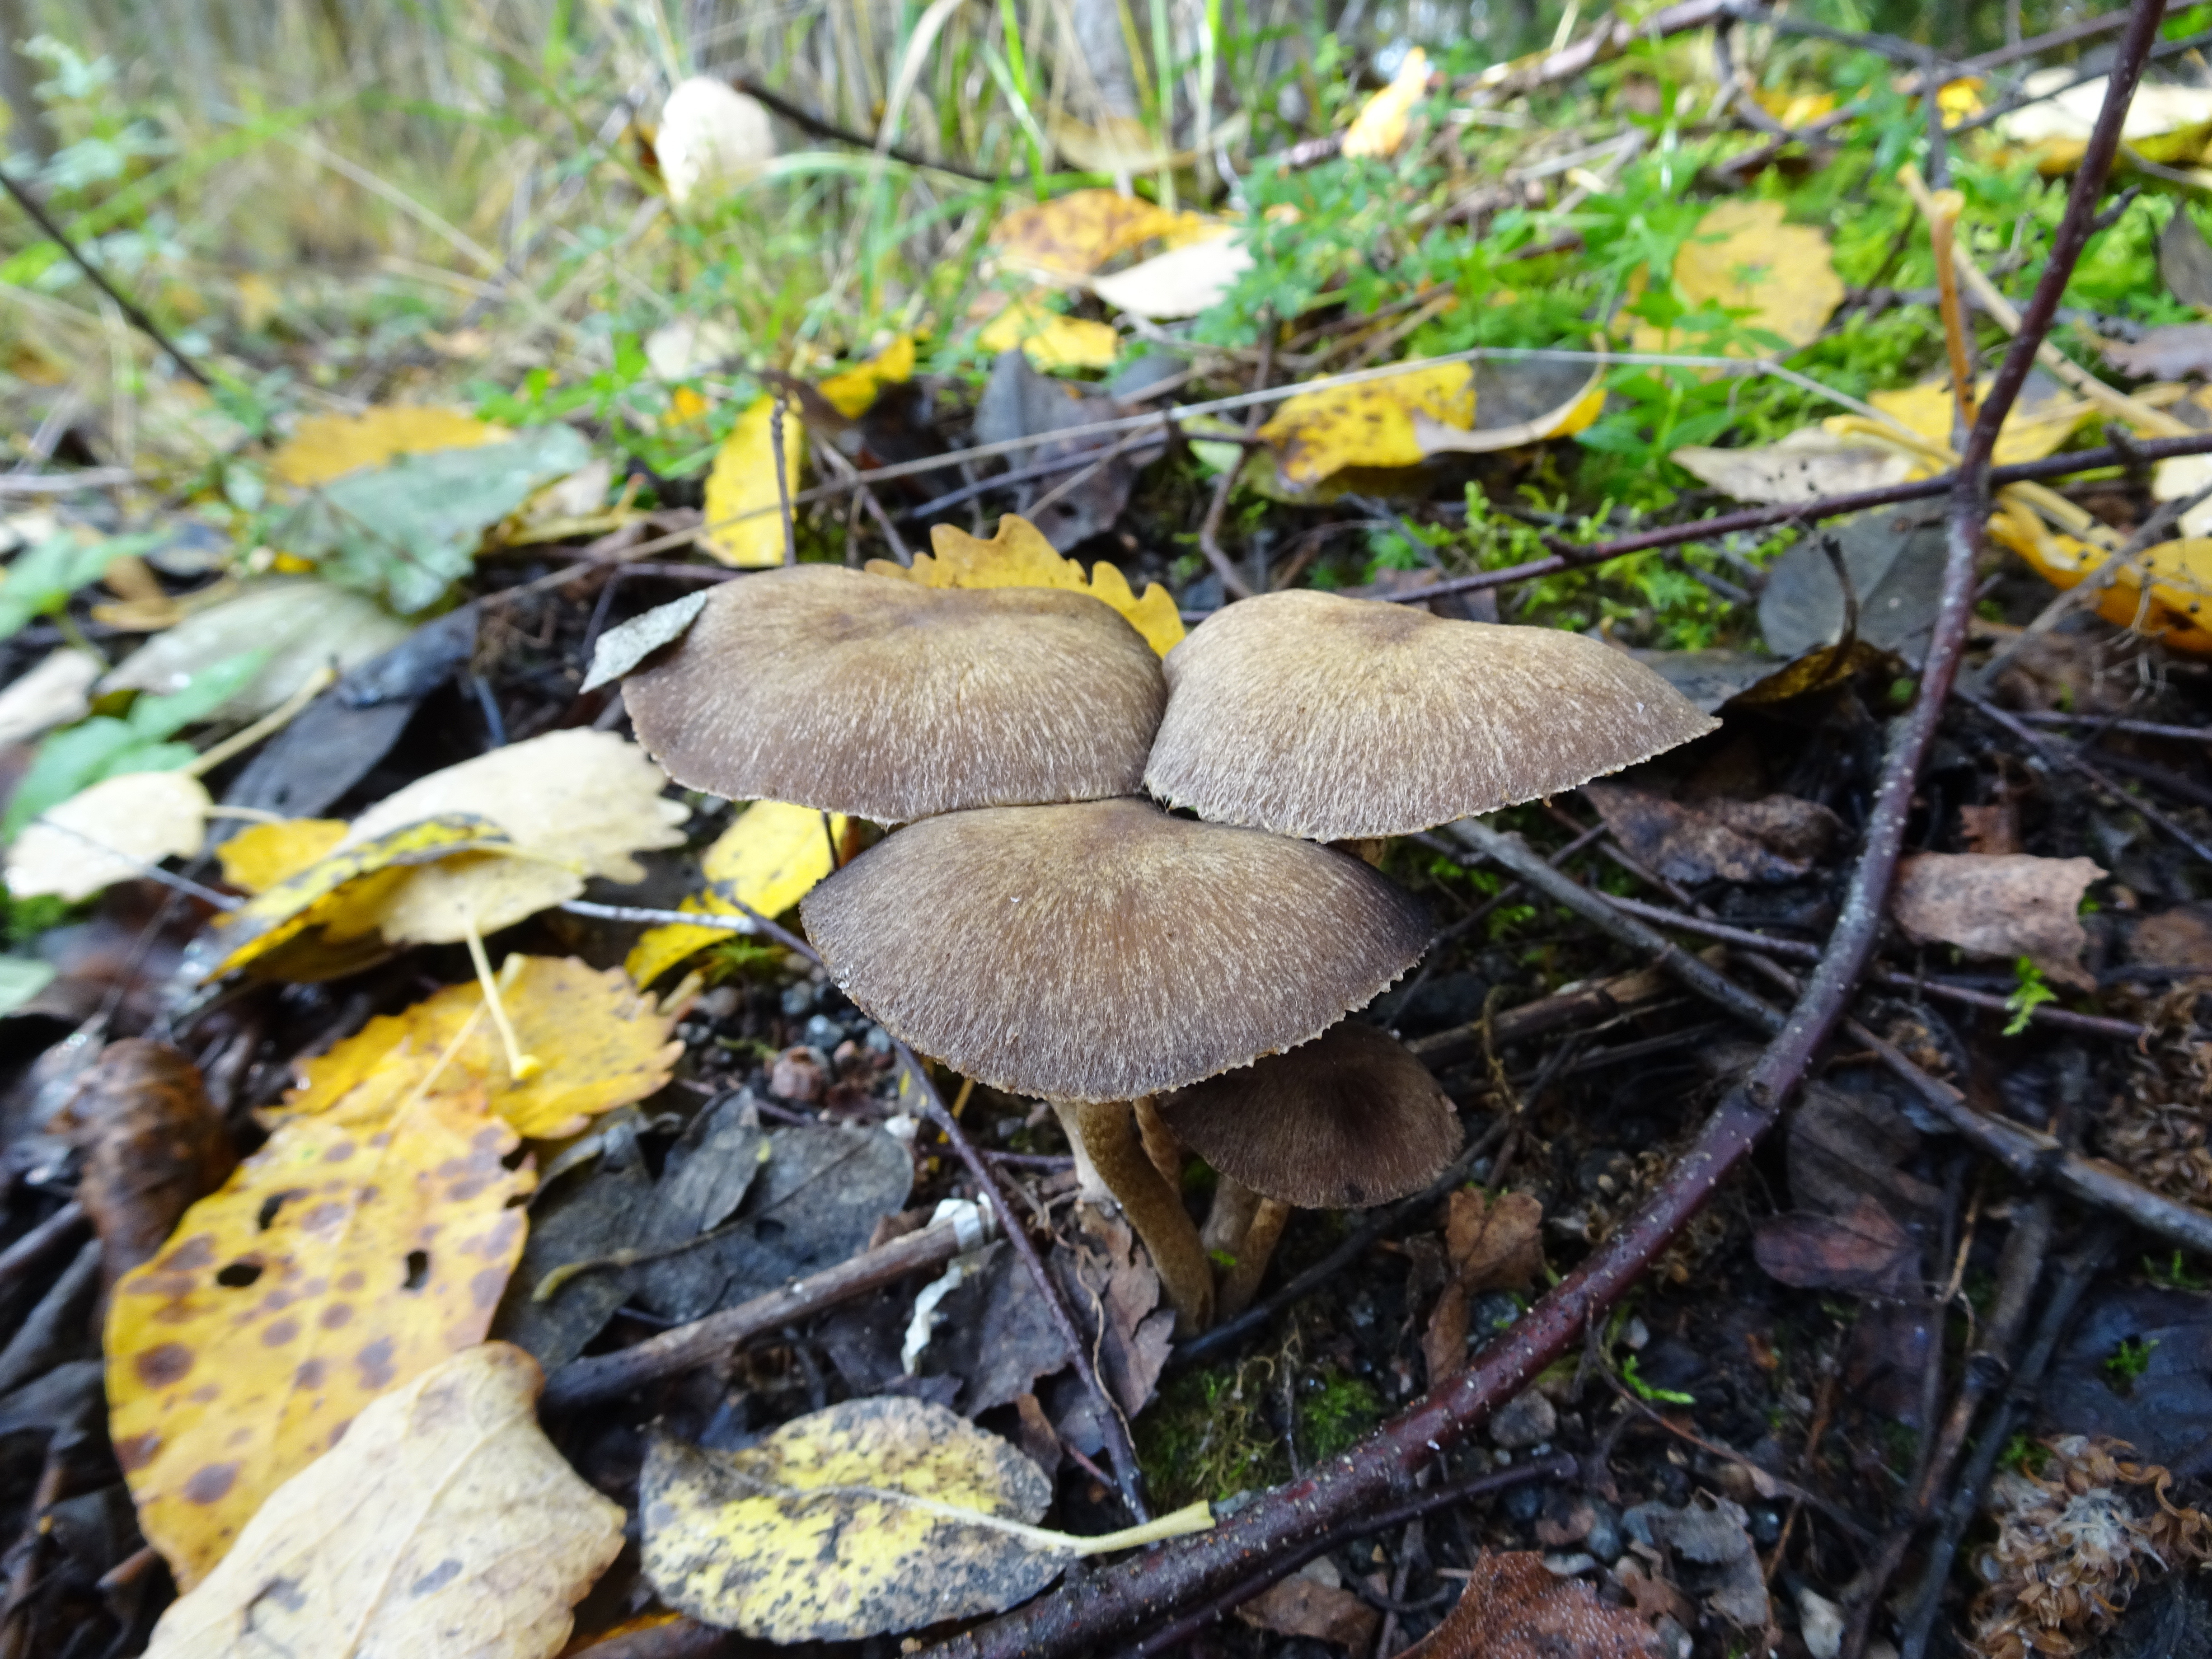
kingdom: Fungi
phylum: Basidiomycota
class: Agaricomycetes
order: Agaricales
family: Psathyrellaceae
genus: Psathyrella
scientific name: Psathyrella
